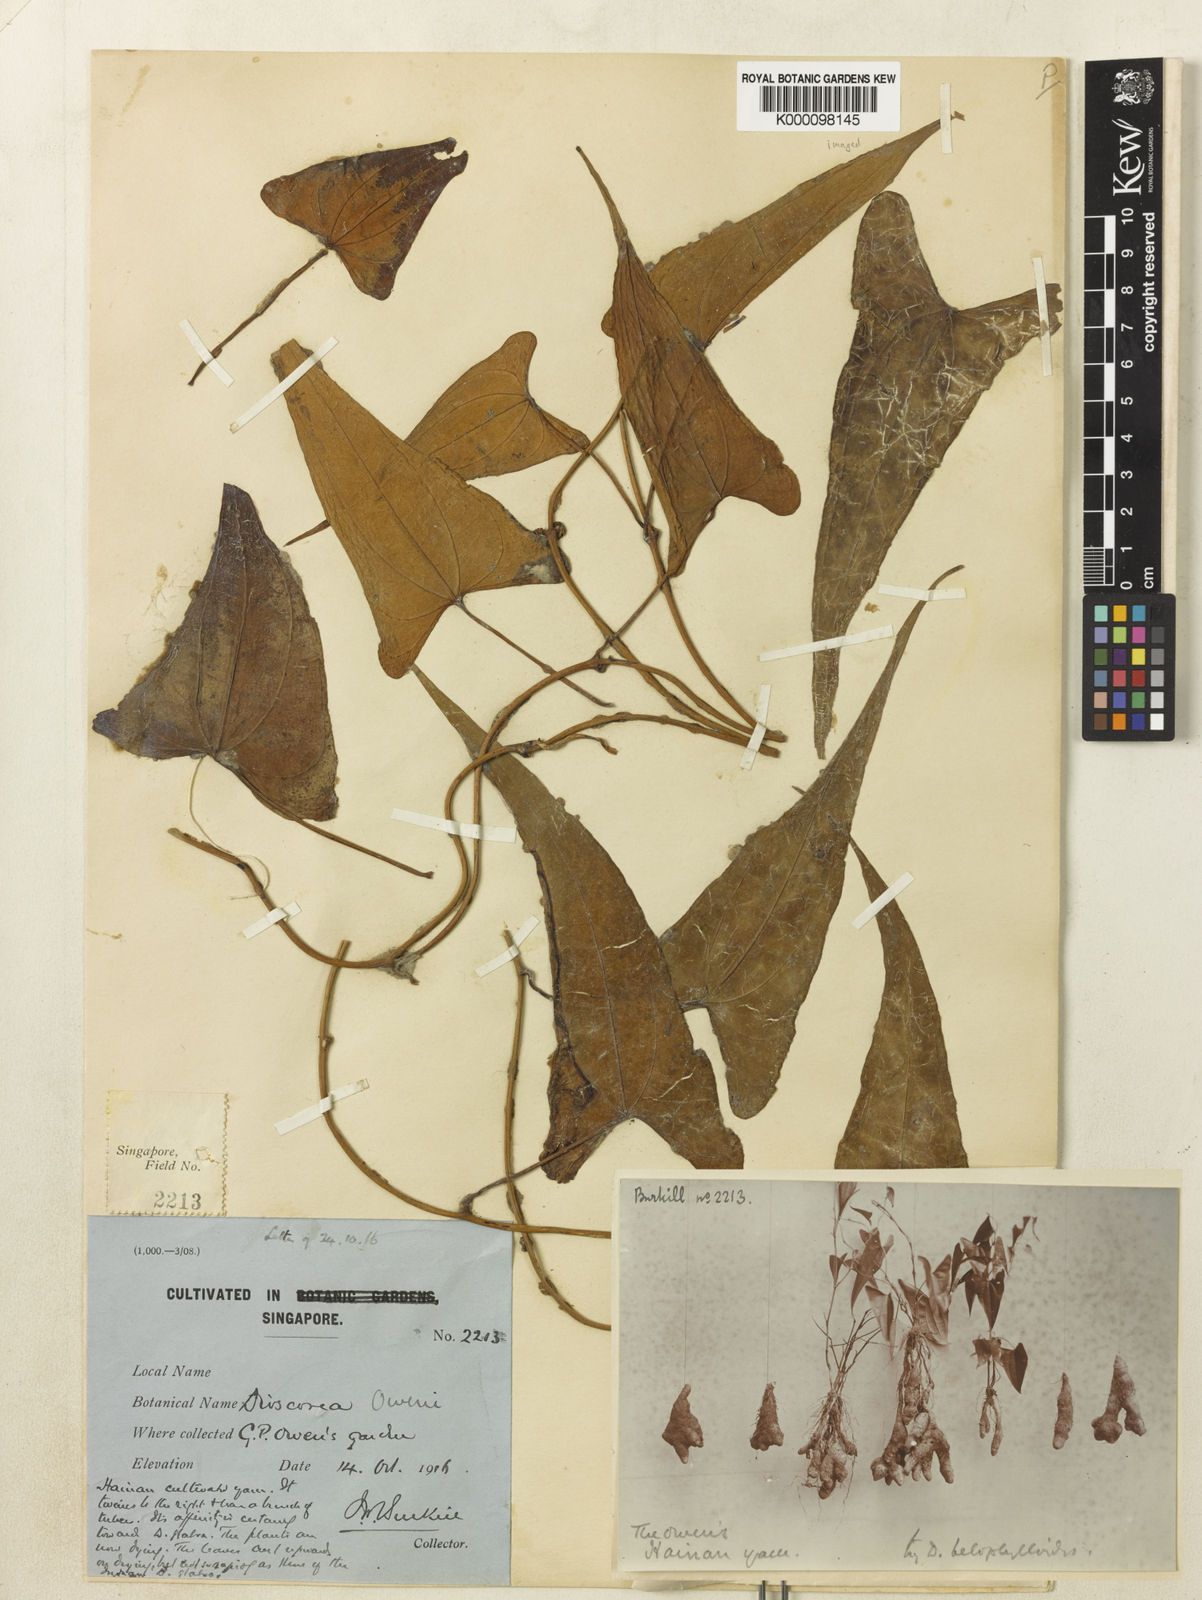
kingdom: Plantae
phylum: Tracheophyta
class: Liliopsida
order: Dioscoreales
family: Dioscoreaceae
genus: Dioscorea
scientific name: Dioscorea owenii
